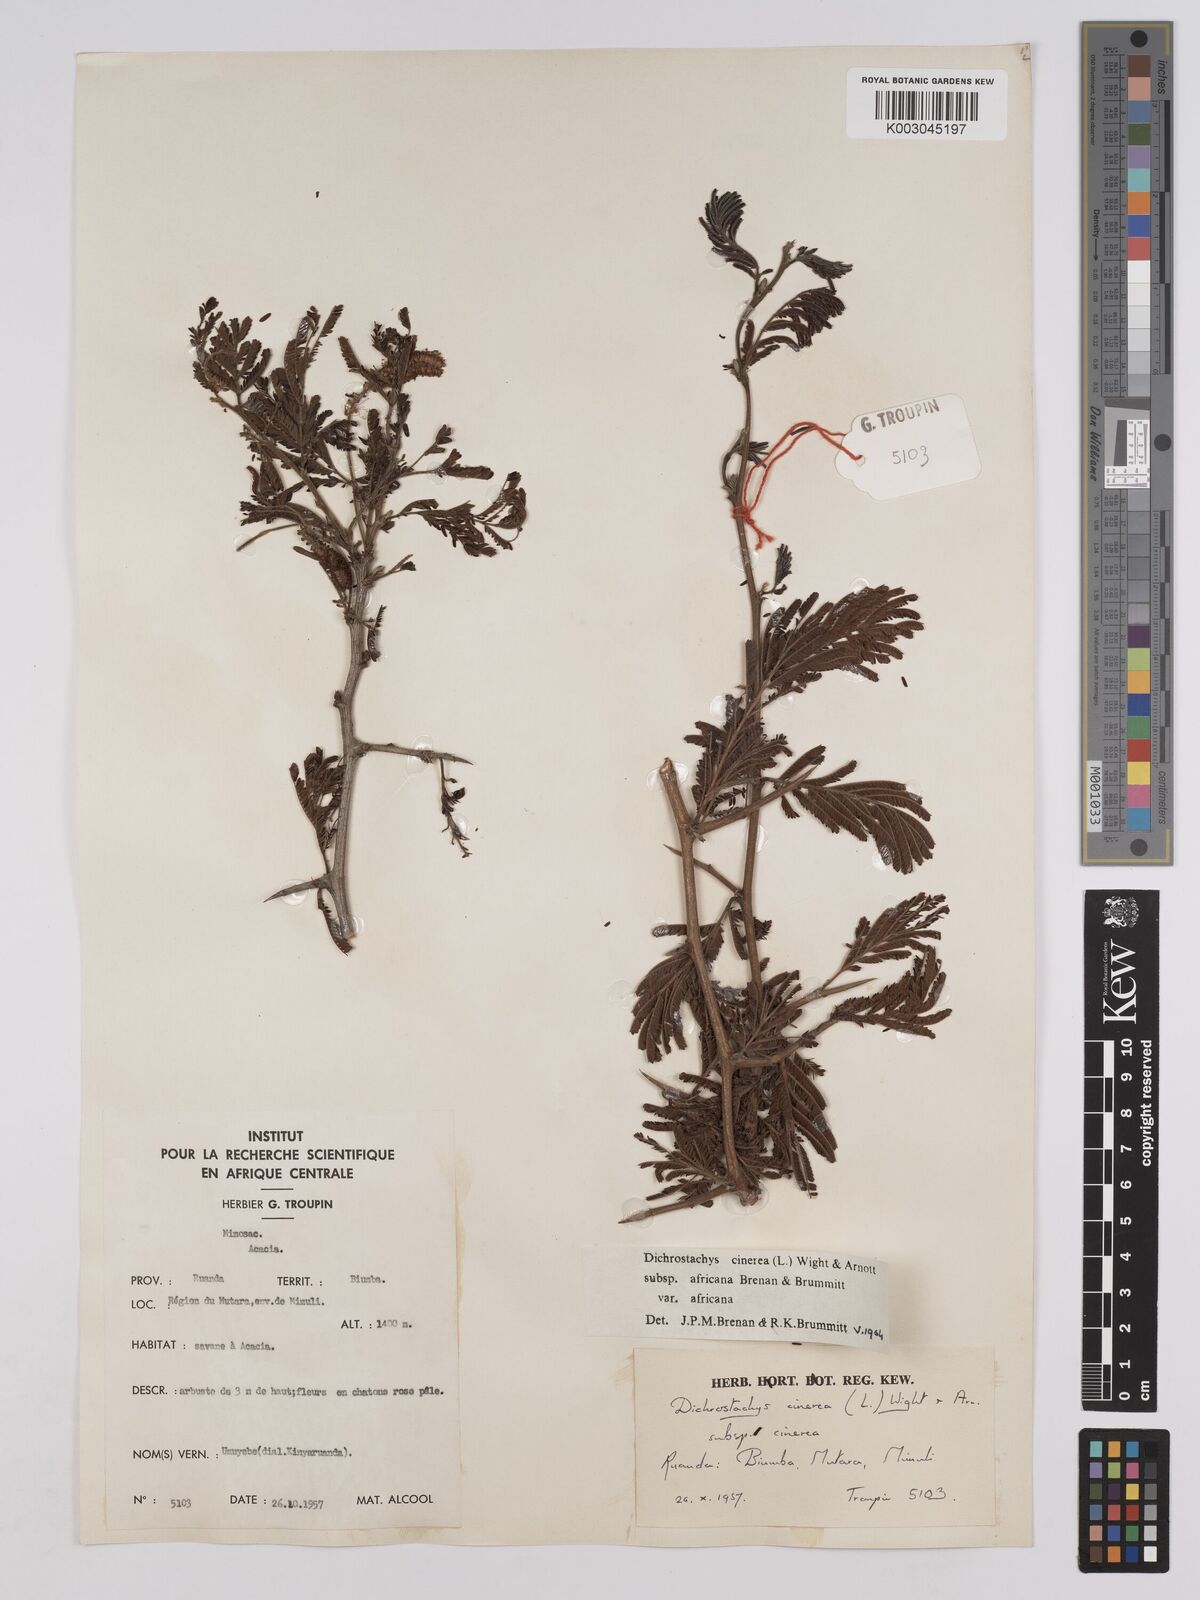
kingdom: Plantae
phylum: Tracheophyta
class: Magnoliopsida
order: Fabales
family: Fabaceae
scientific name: Fabaceae
